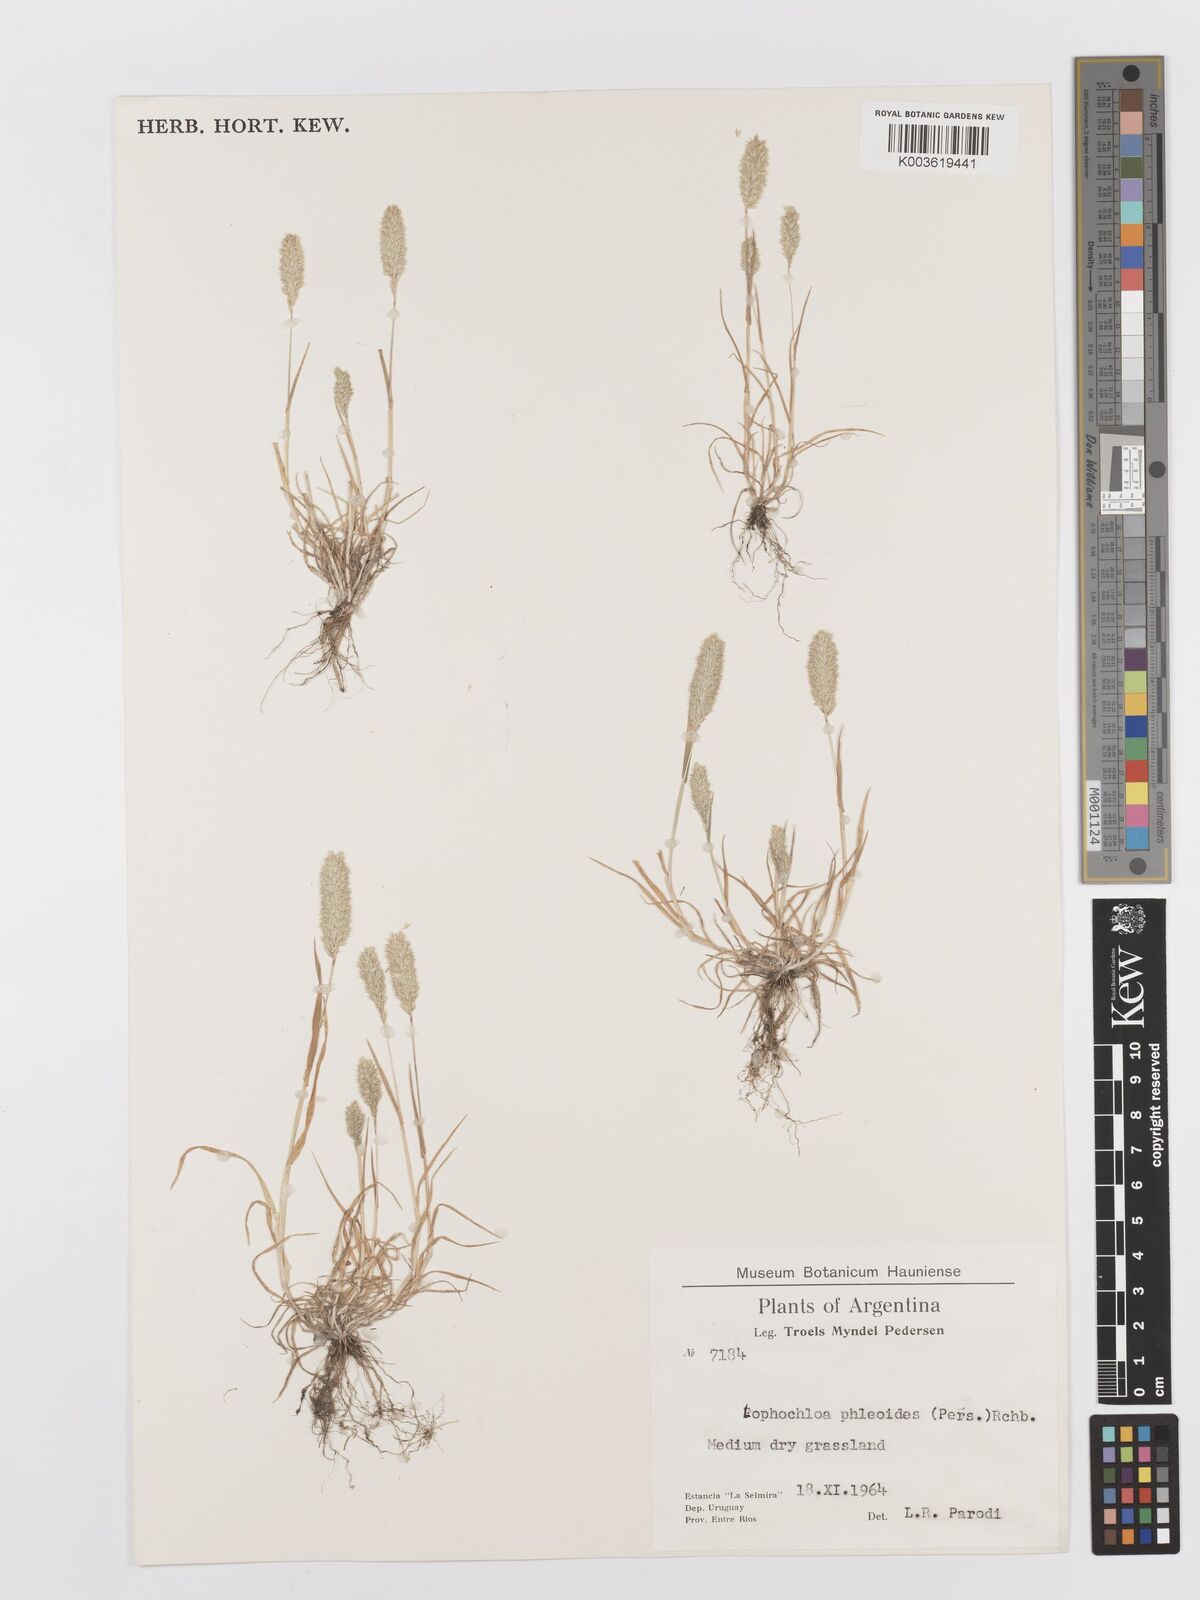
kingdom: Plantae
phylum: Tracheophyta
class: Liliopsida
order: Poales
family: Poaceae
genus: Rostraria
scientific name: Rostraria cristata
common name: Mediterranean hair-grass
